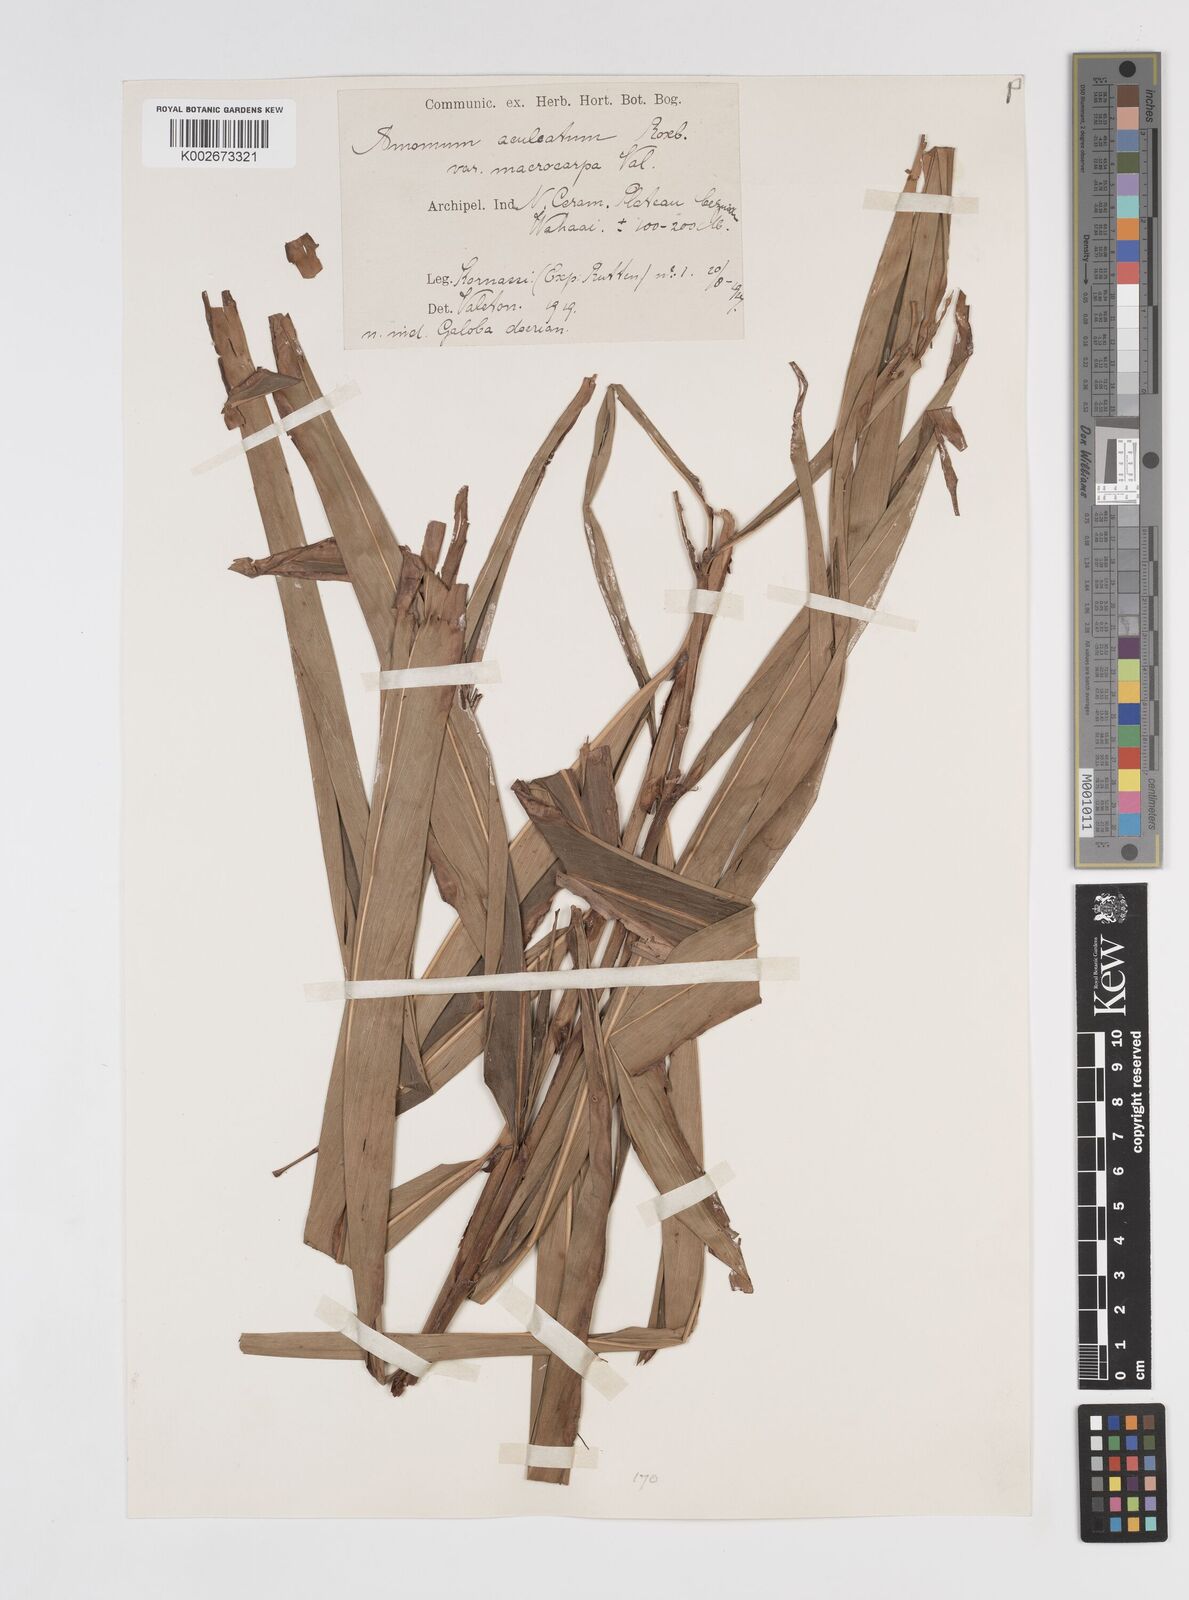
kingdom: Plantae
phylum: Tracheophyta
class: Liliopsida
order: Zingiberales
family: Zingiberaceae
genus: Meistera
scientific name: Meistera aculeata
